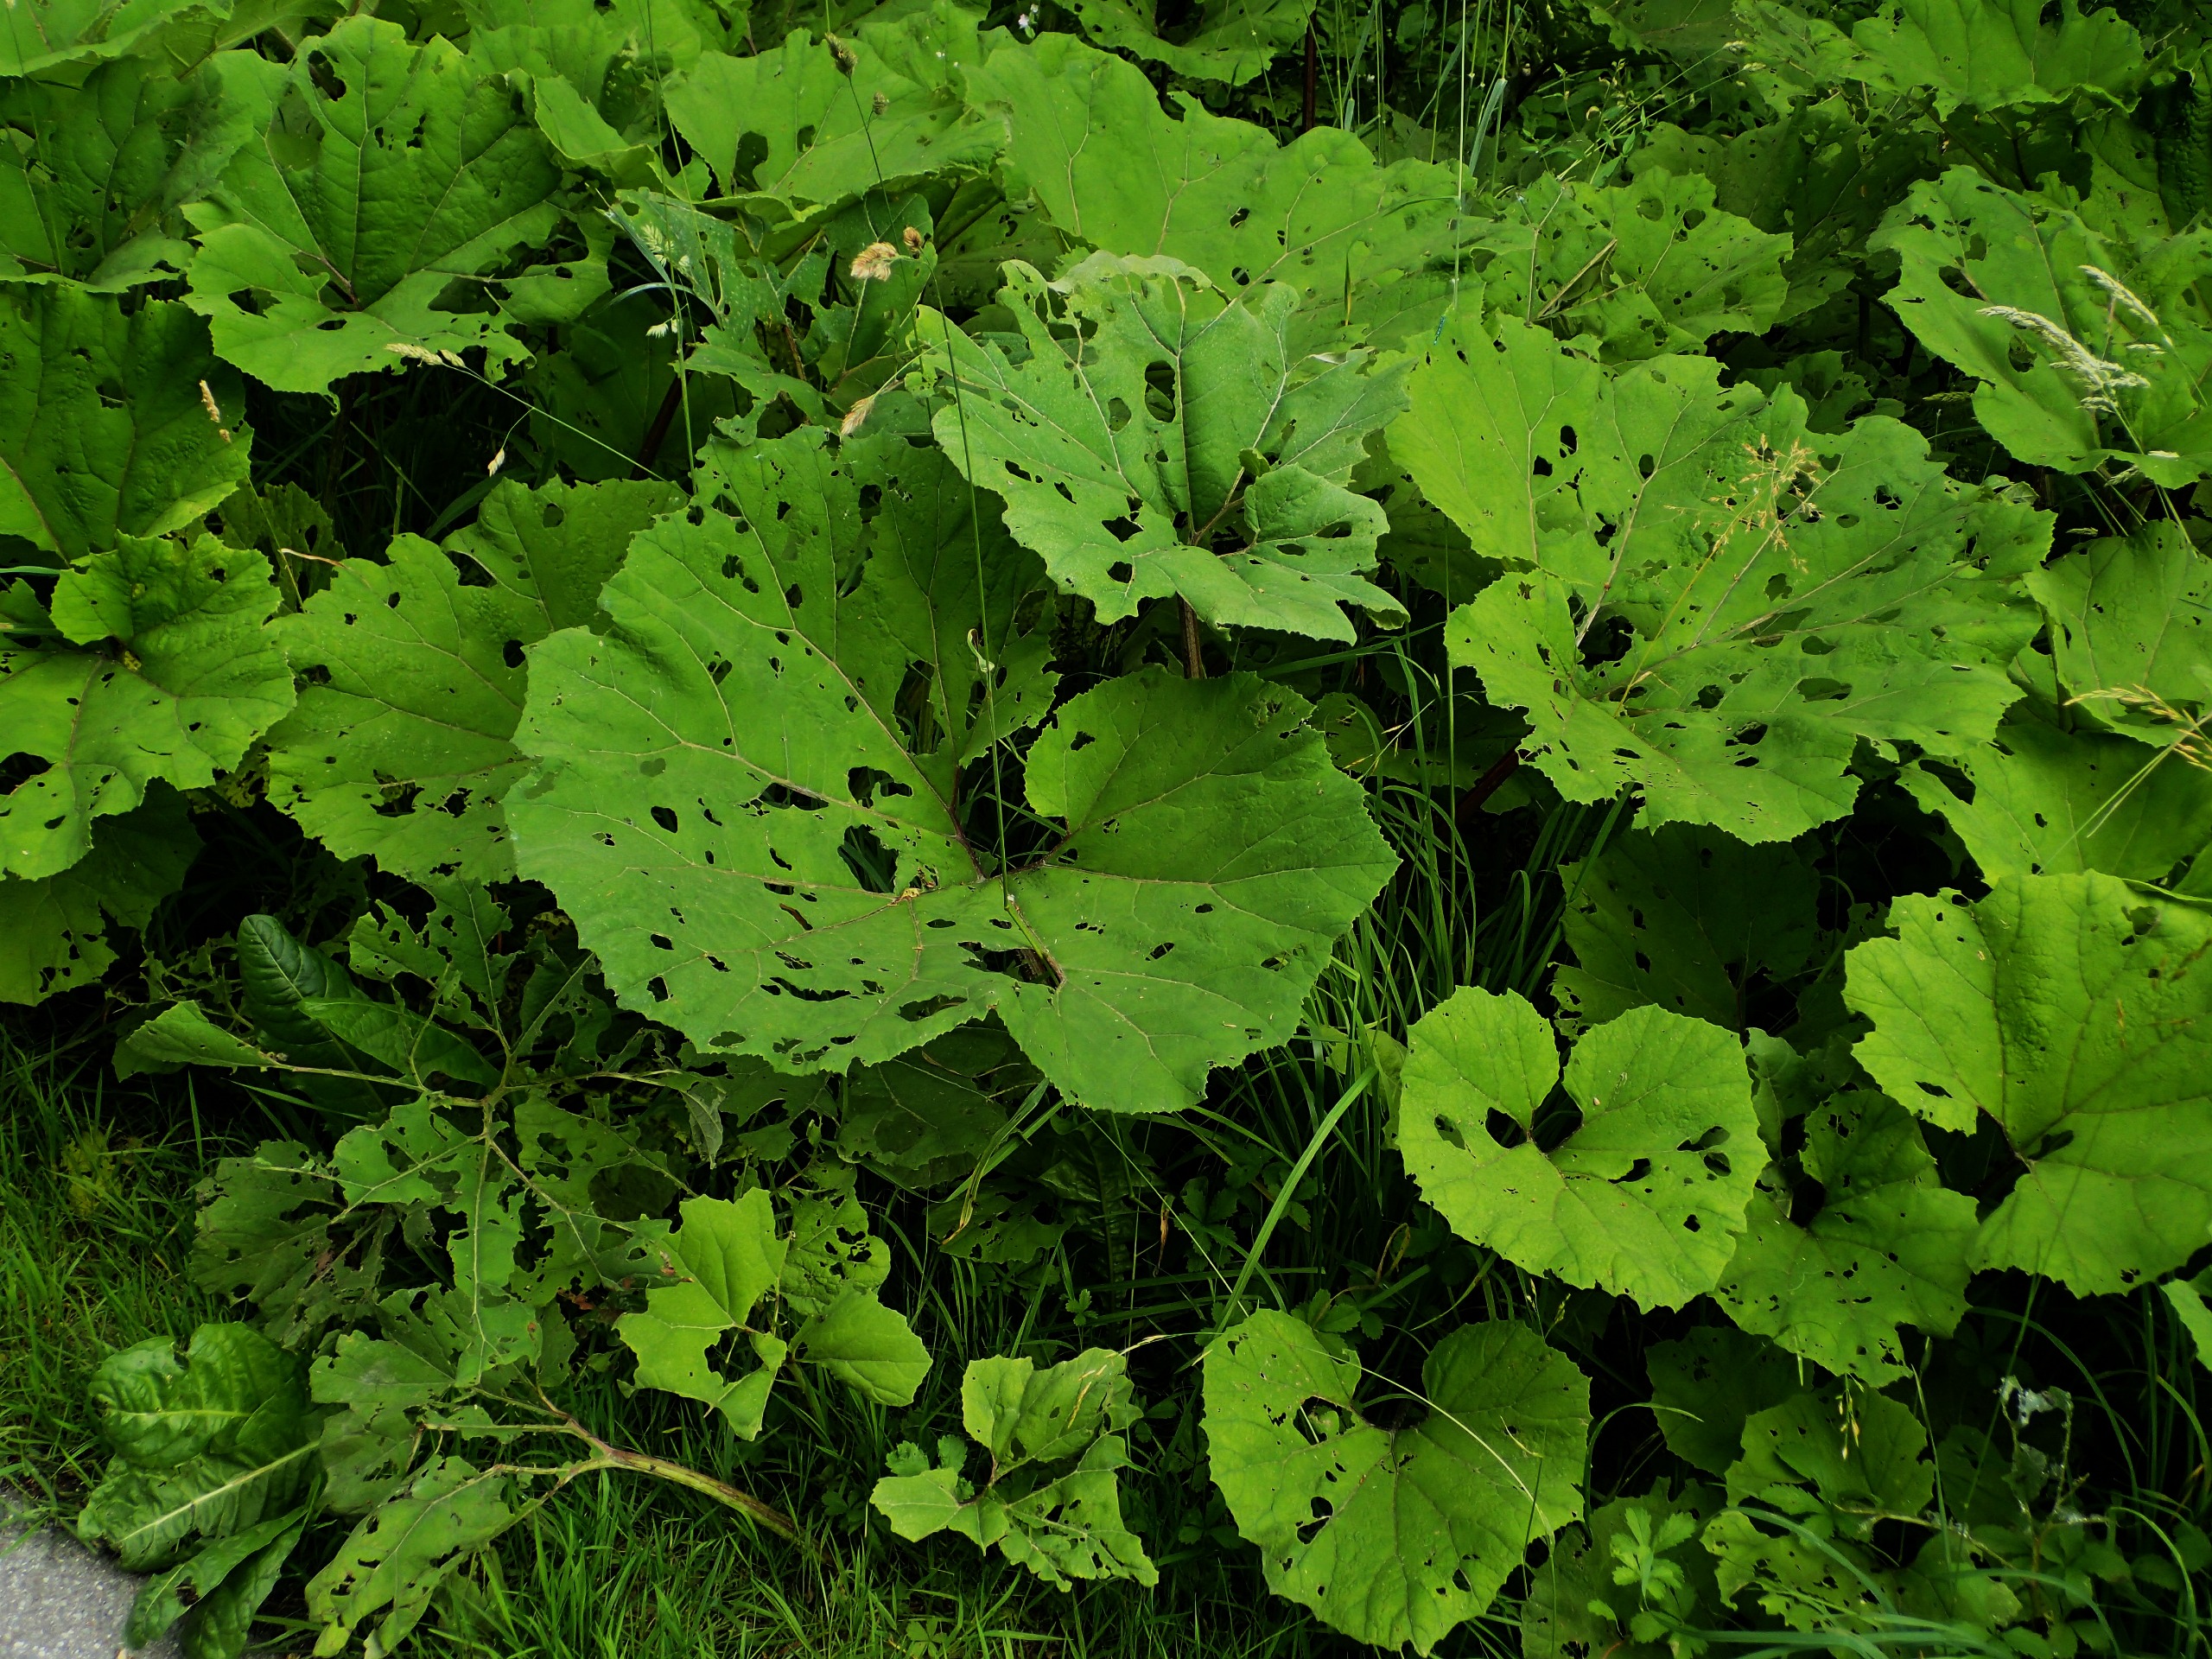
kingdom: Plantae
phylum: Tracheophyta
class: Magnoliopsida
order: Asterales
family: Asteraceae
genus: Petasites
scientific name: Petasites hybridus
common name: Rød hestehov
